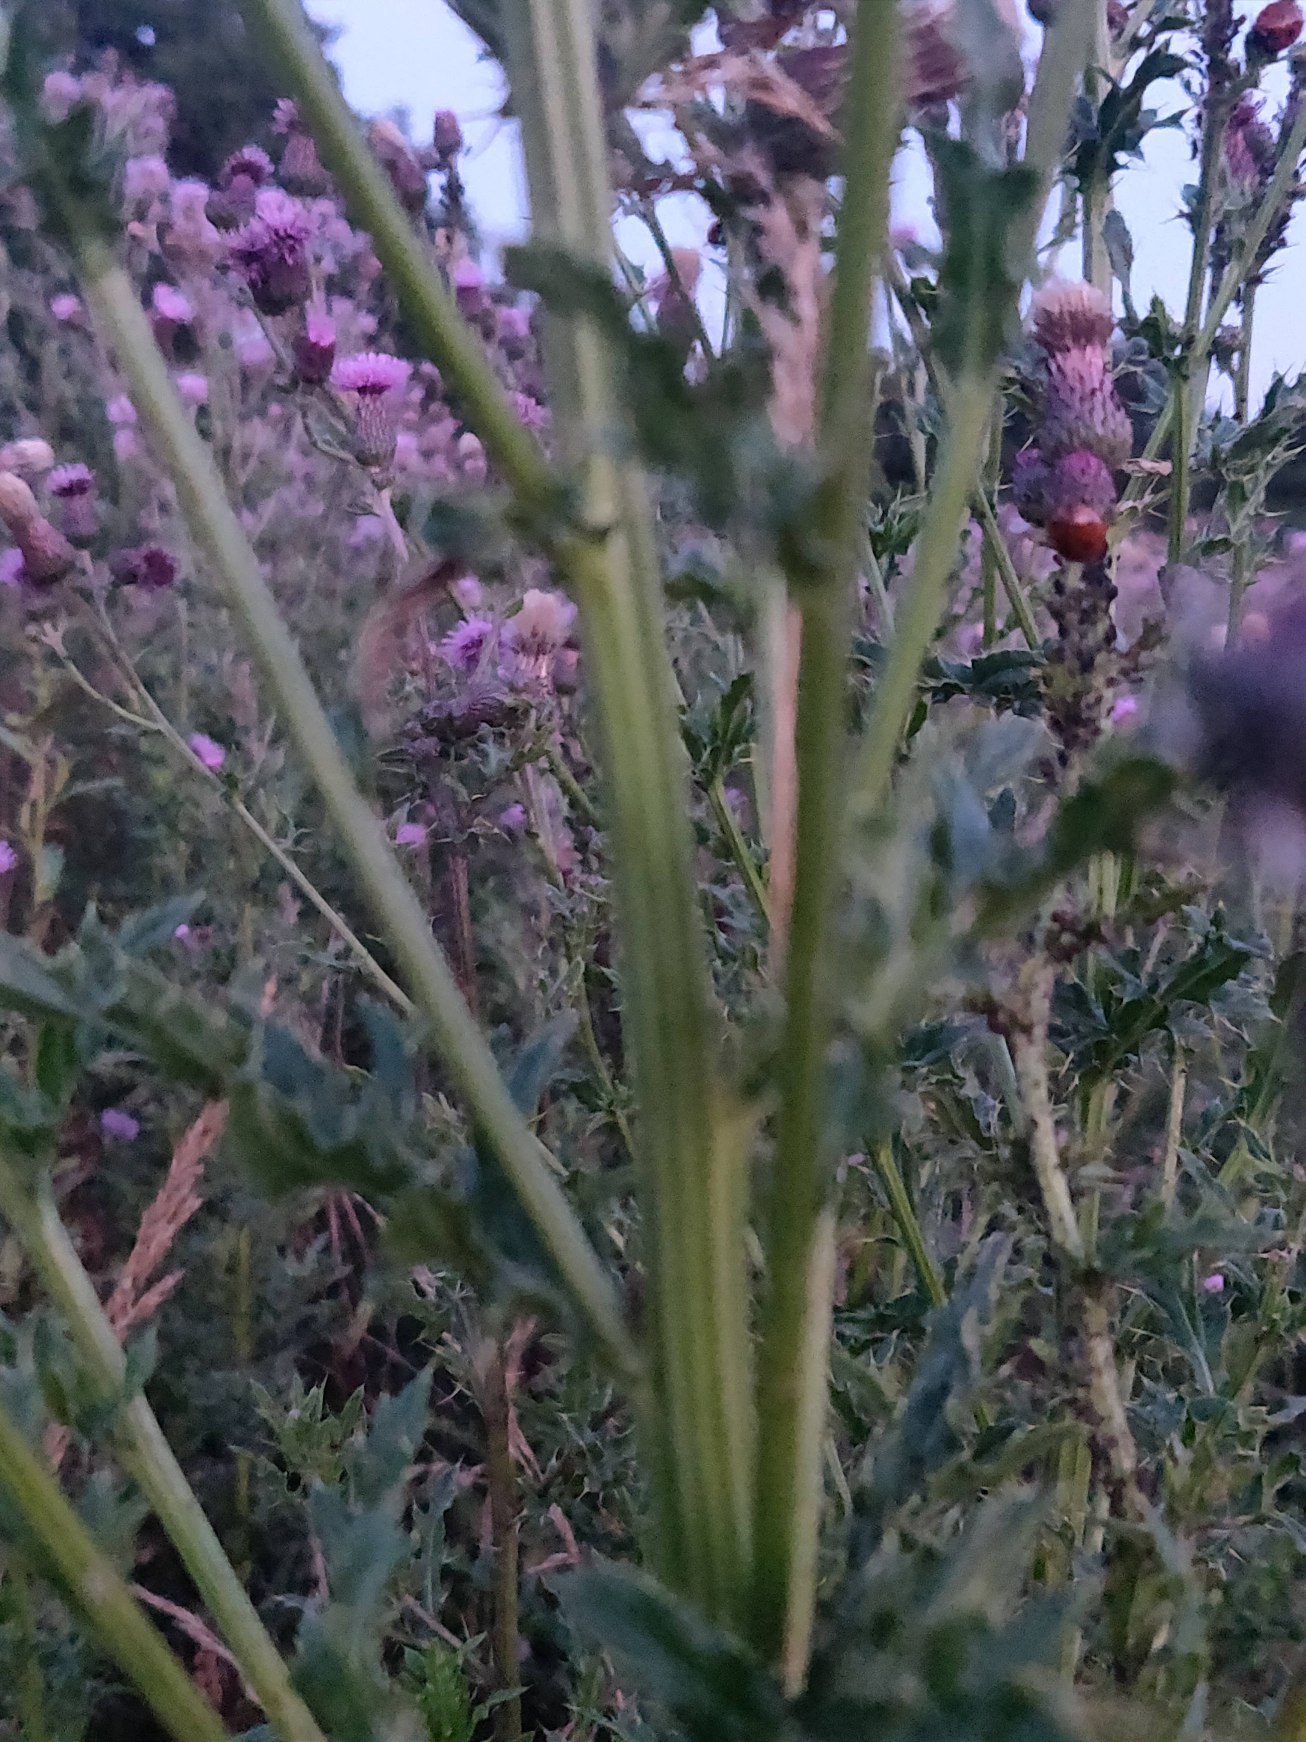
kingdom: Plantae
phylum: Tracheophyta
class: Magnoliopsida
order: Asterales
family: Asteraceae
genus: Cirsium
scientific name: Cirsium arvense
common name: Ager-tidsel
